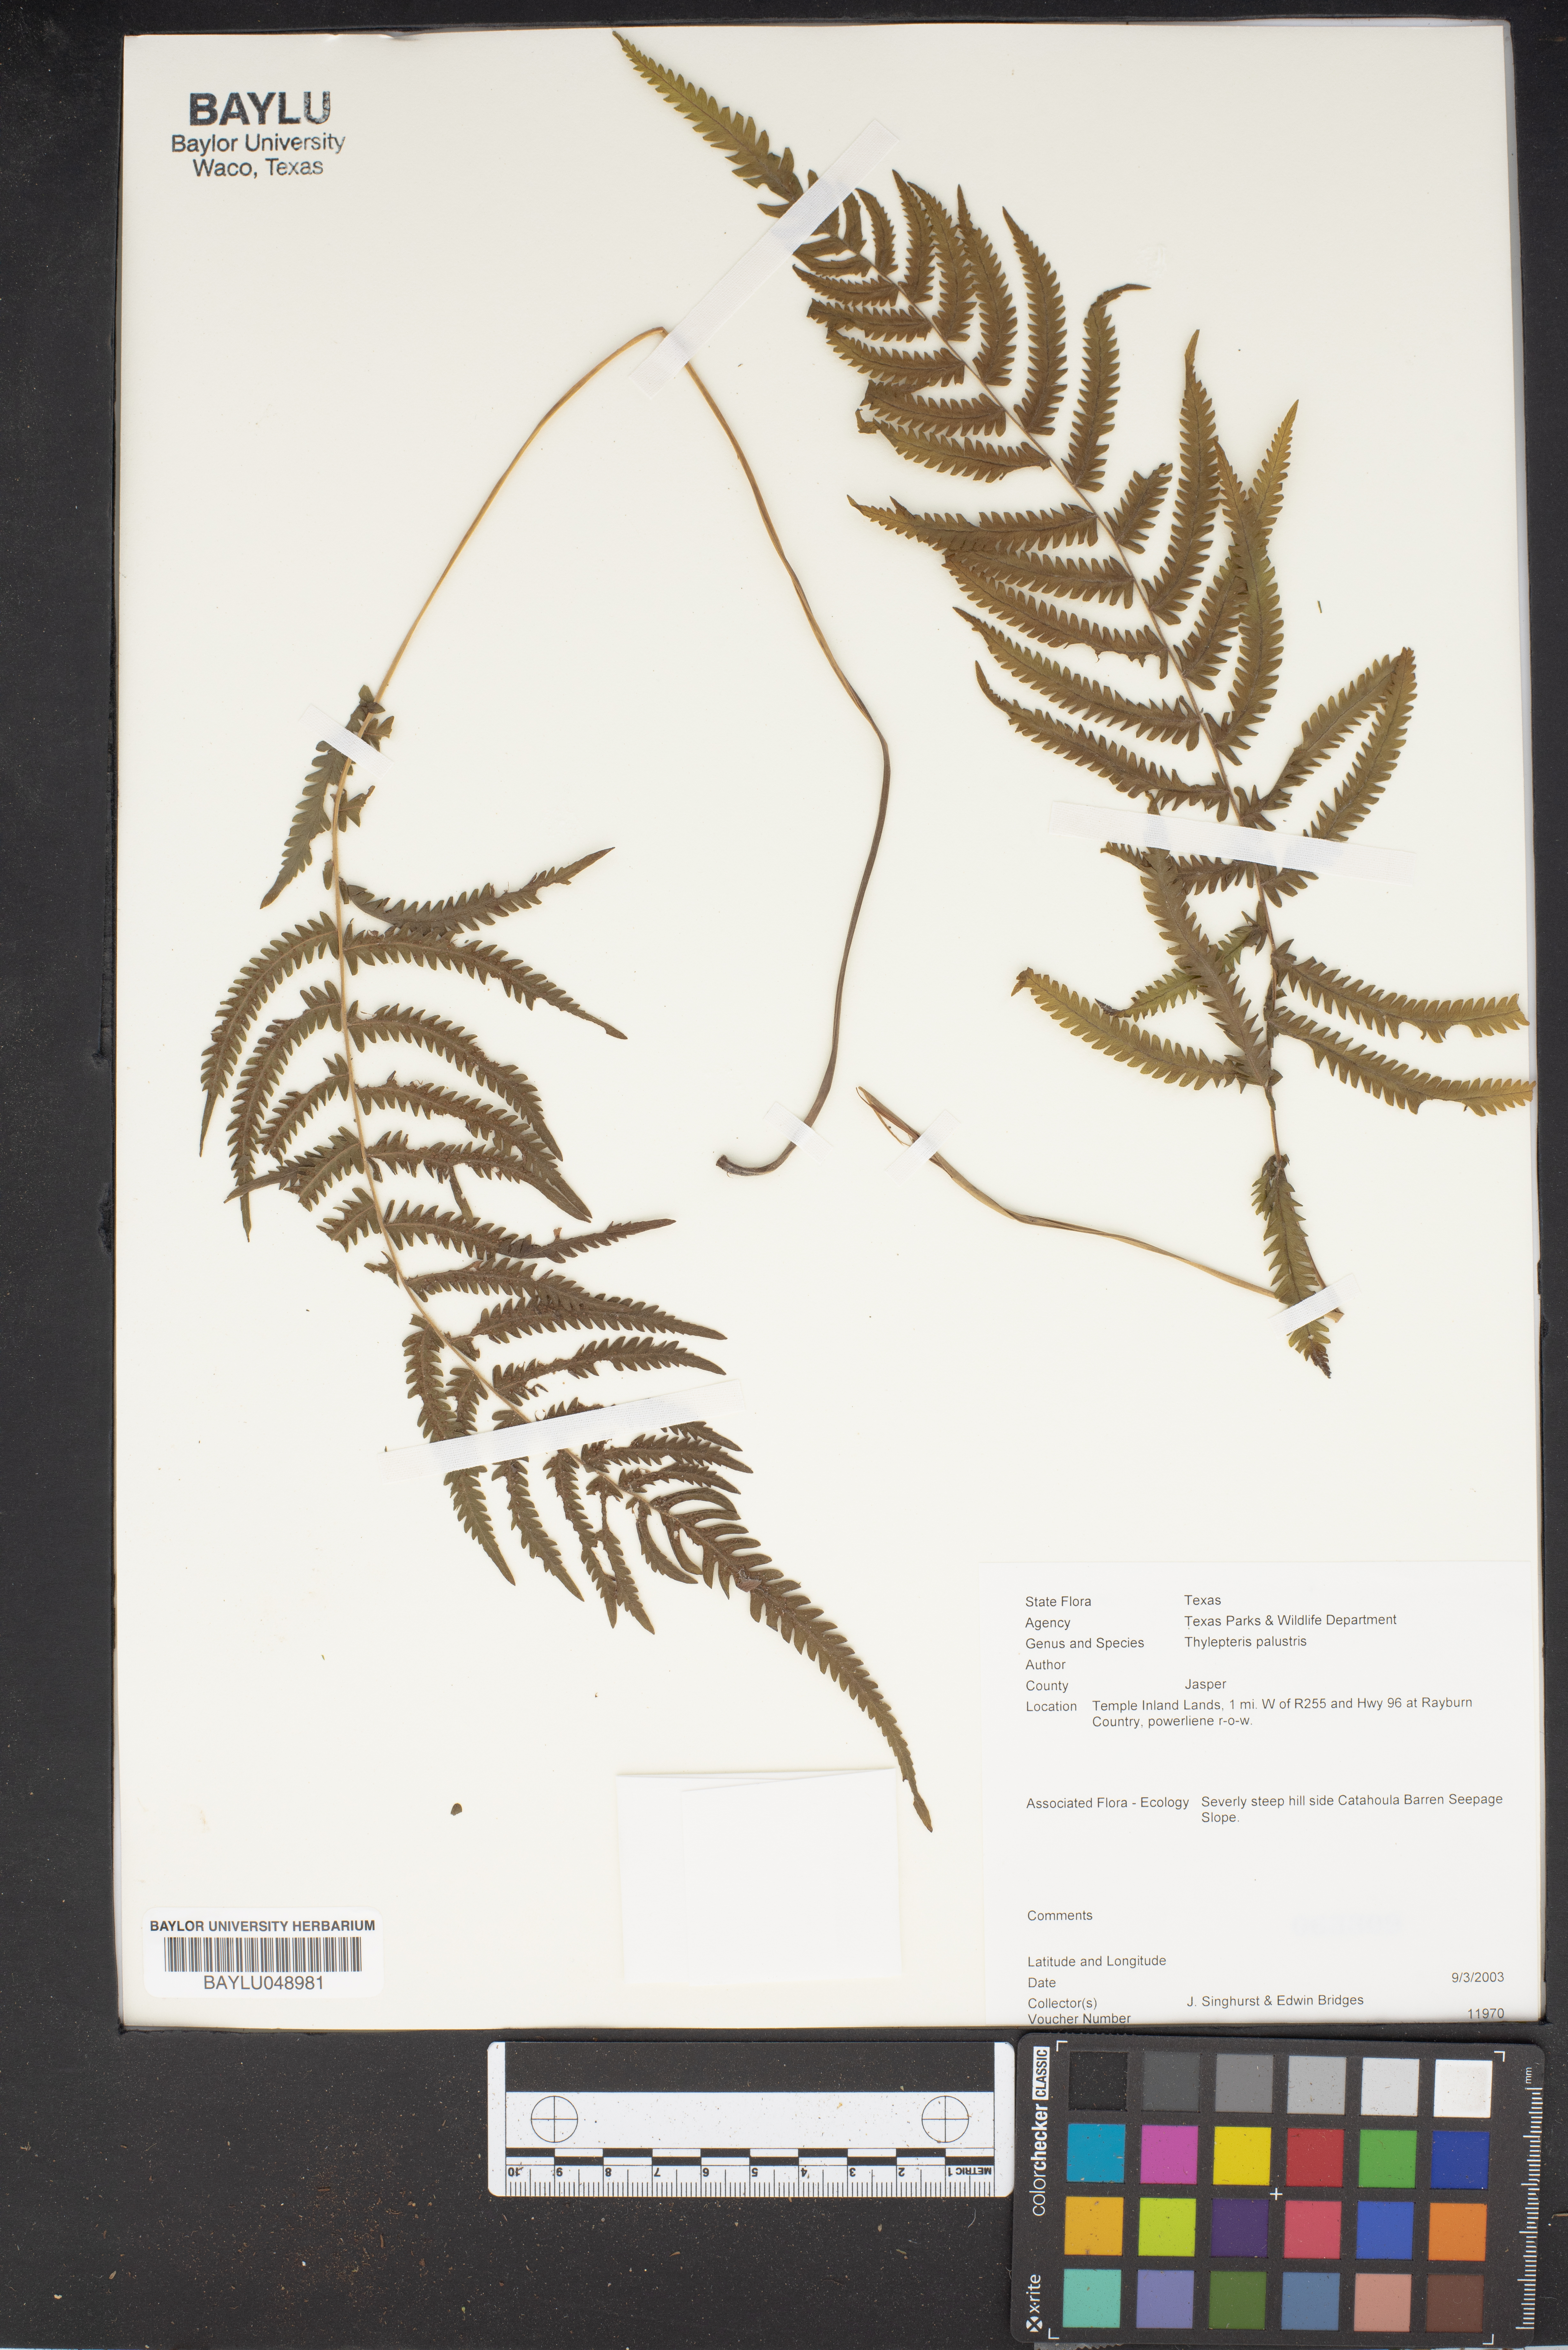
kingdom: Plantae
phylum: Tracheophyta
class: Polypodiopsida
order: Polypodiales
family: Thelypteridaceae
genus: Thelypteris
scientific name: Thelypteris palustris
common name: Marsh fern
